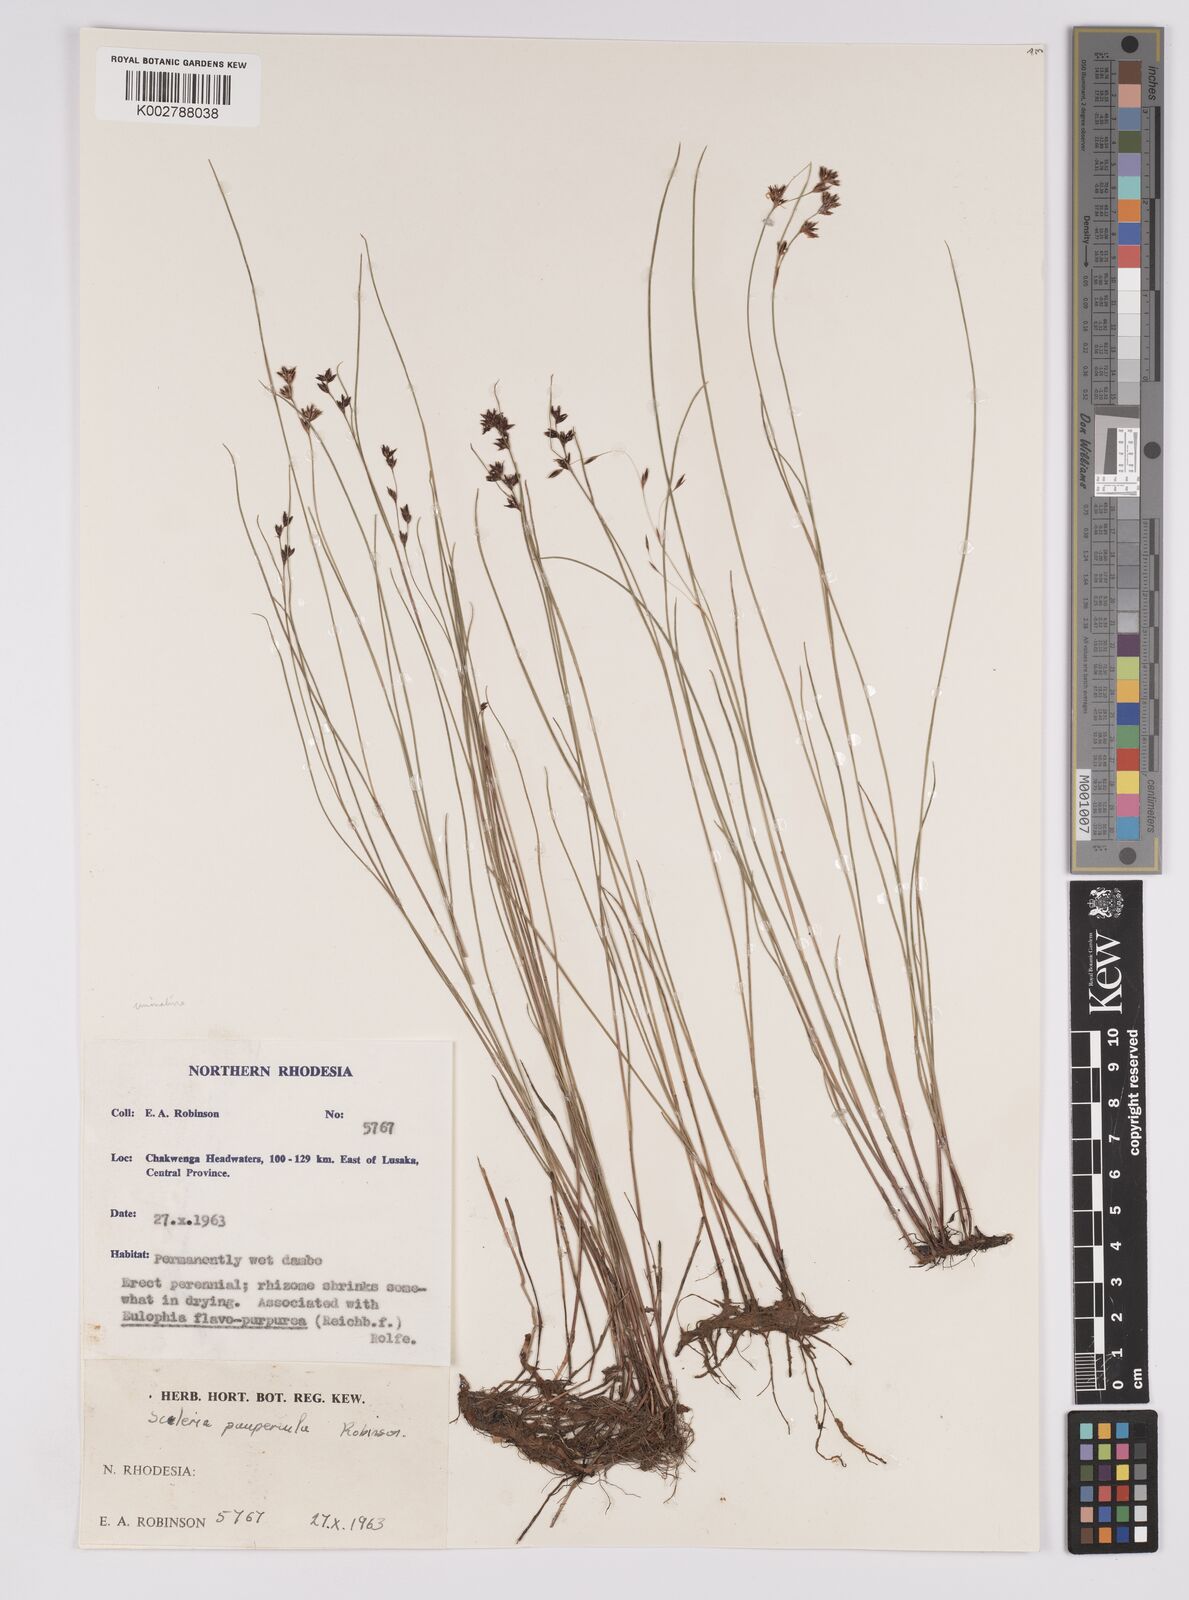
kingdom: Plantae
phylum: Tracheophyta
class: Liliopsida
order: Poales
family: Cyperaceae
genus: Scleria
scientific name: Scleria paupercula
